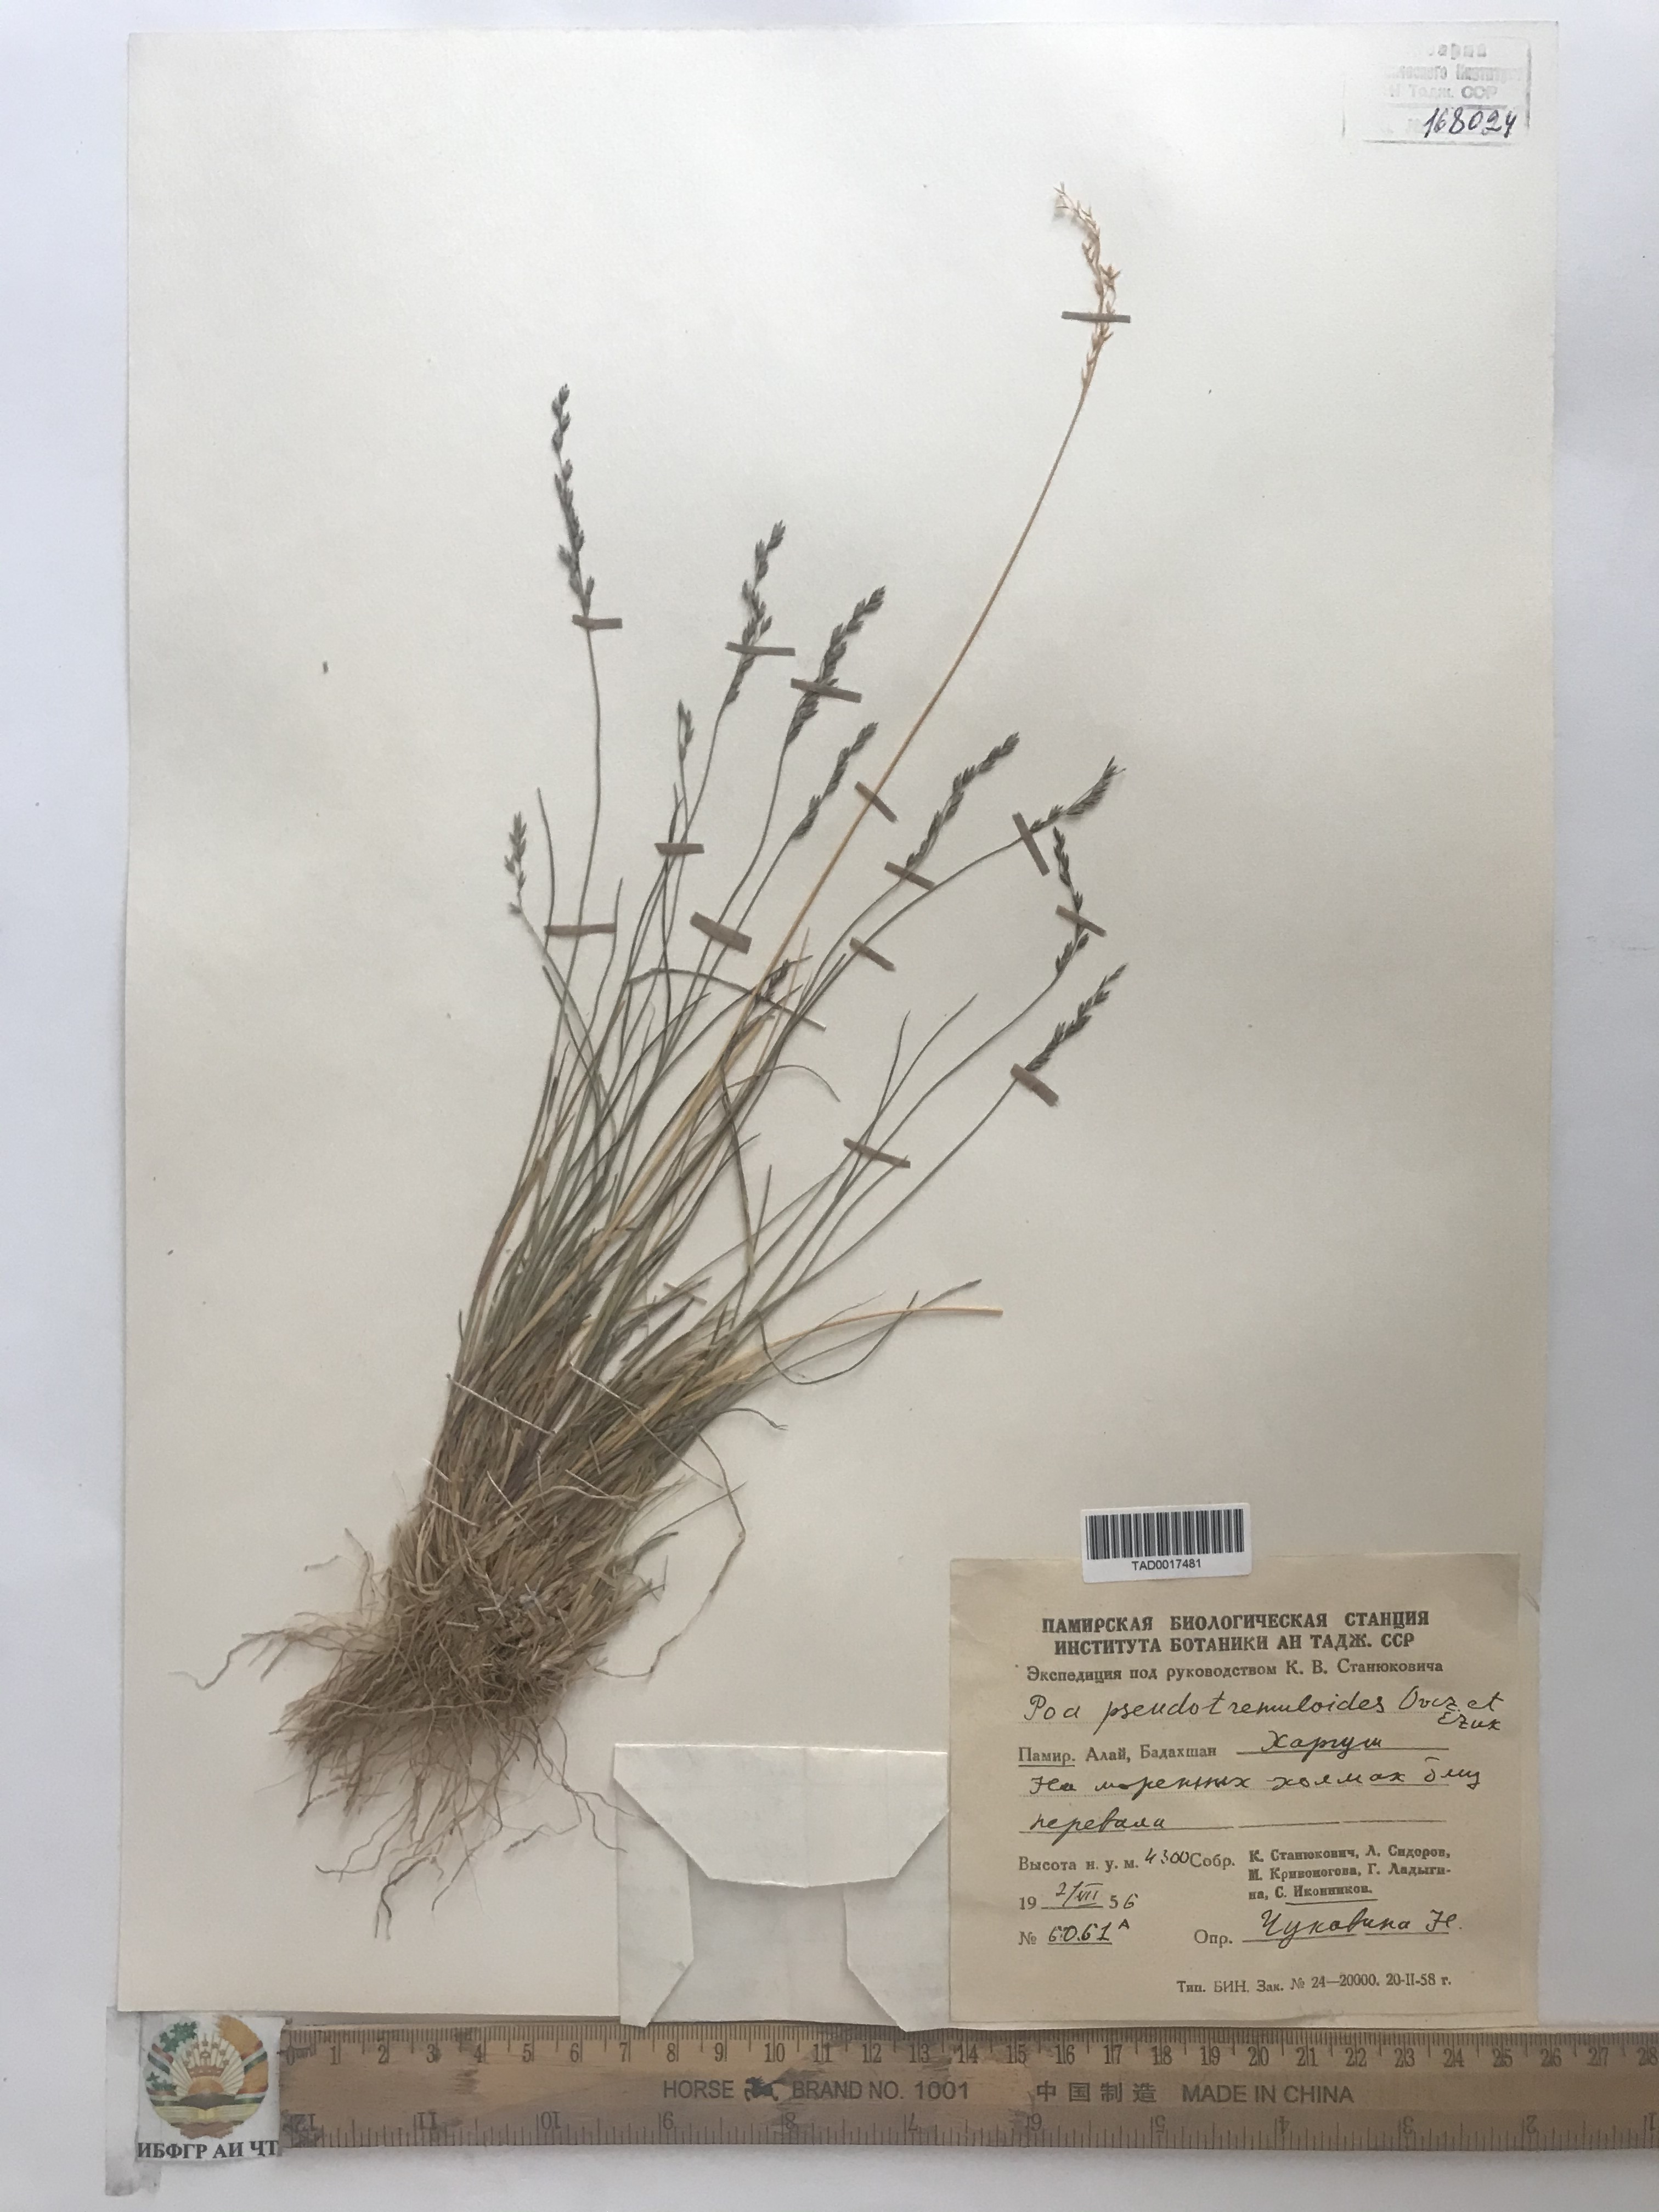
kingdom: Plantae
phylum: Tracheophyta
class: Liliopsida
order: Poales
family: Poaceae
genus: Poa
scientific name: Poa glauca
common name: Glaucous bluegrass
